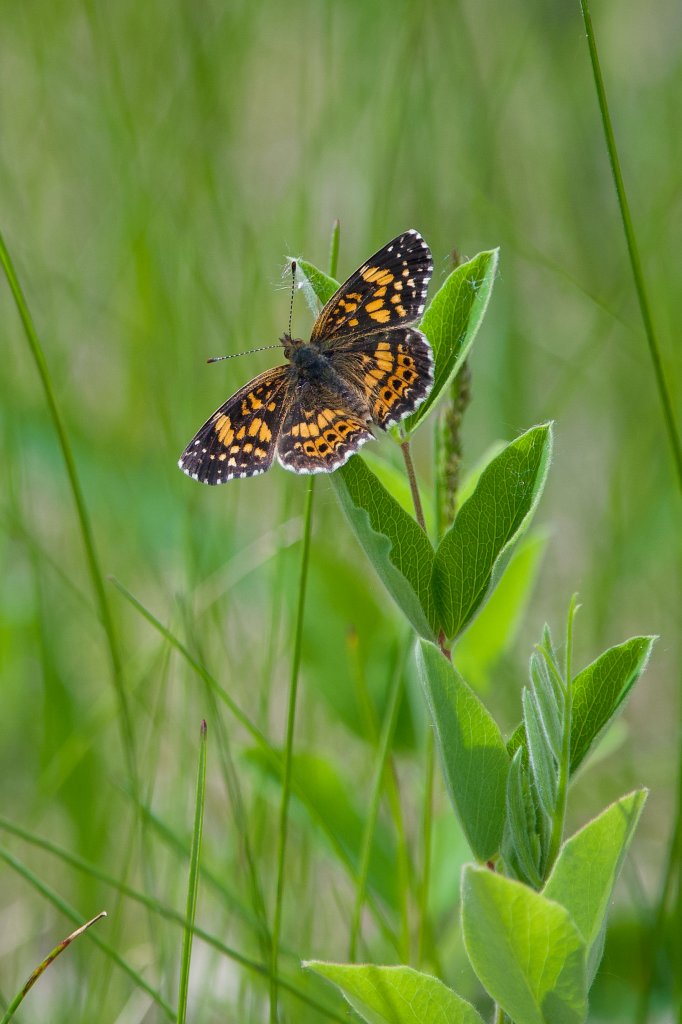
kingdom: Animalia
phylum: Arthropoda
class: Insecta
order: Lepidoptera
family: Nymphalidae
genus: Chlosyne
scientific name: Chlosyne gorgone
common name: Gorgone Checkerspot
